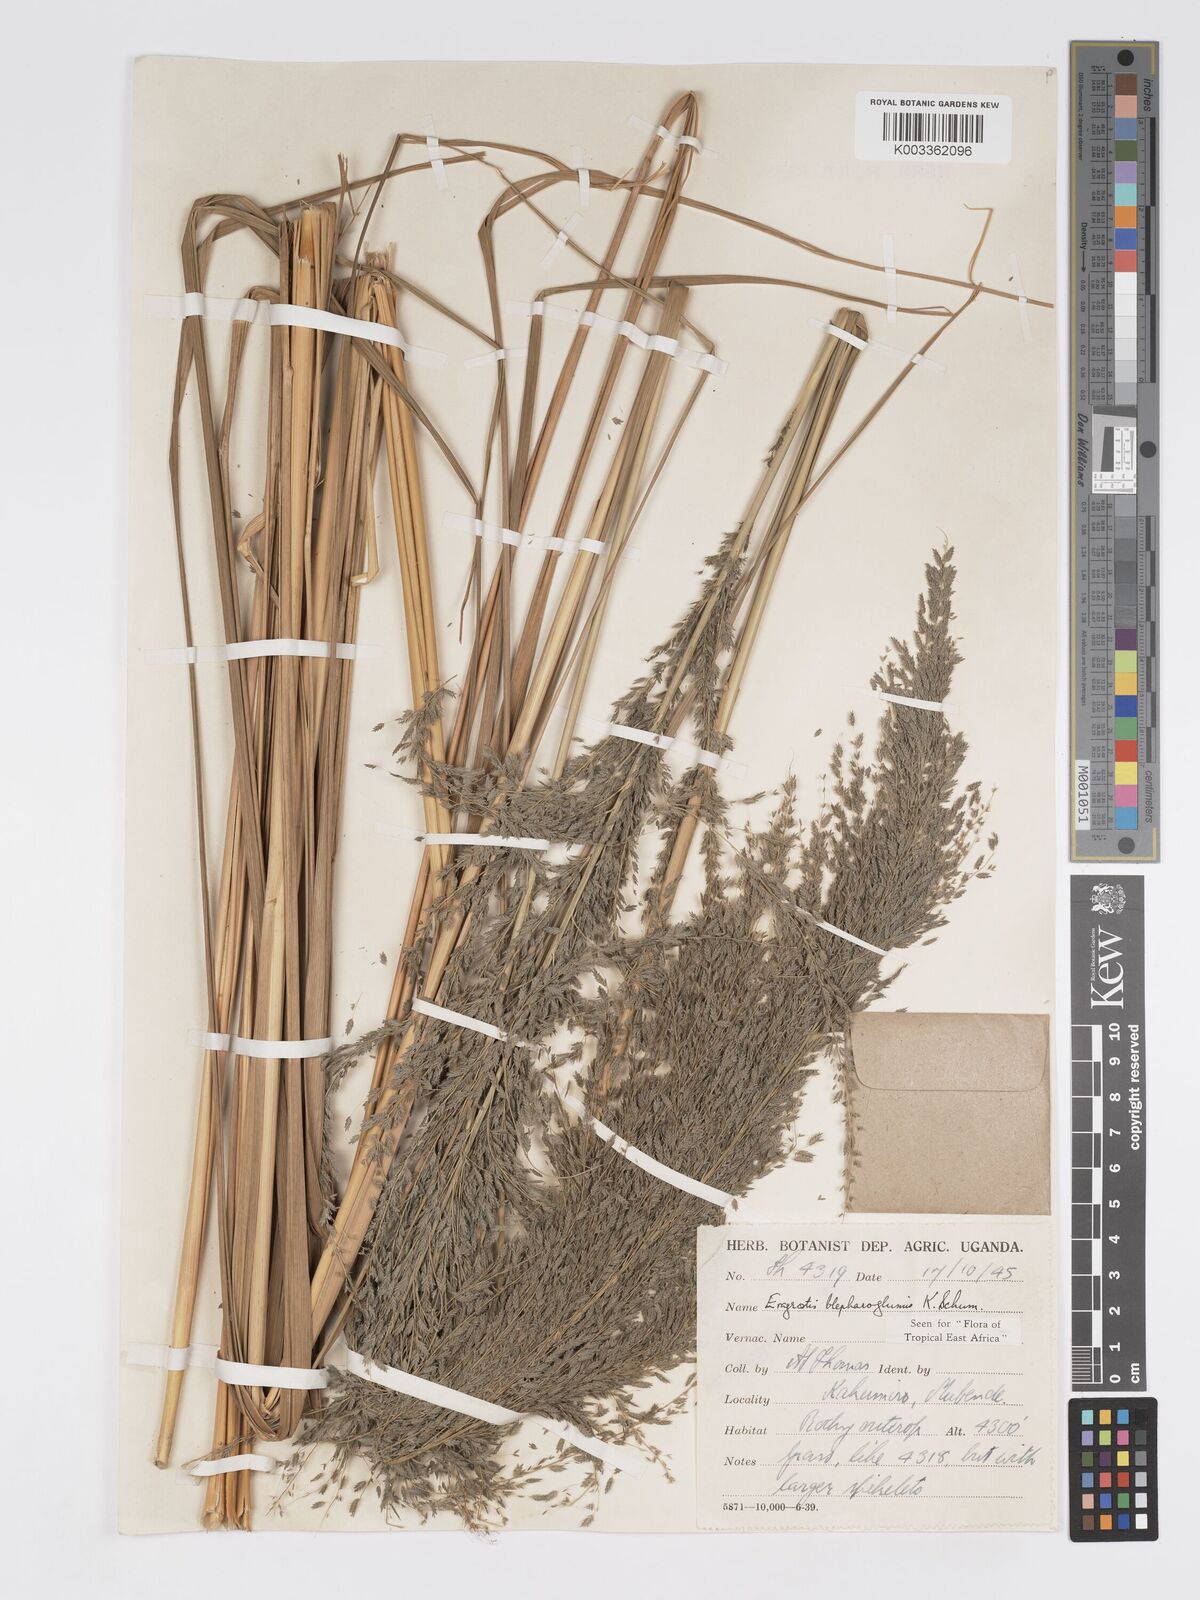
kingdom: Plantae
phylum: Tracheophyta
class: Liliopsida
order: Poales
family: Poaceae
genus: Eragrostis
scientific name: Eragrostis olivacea
